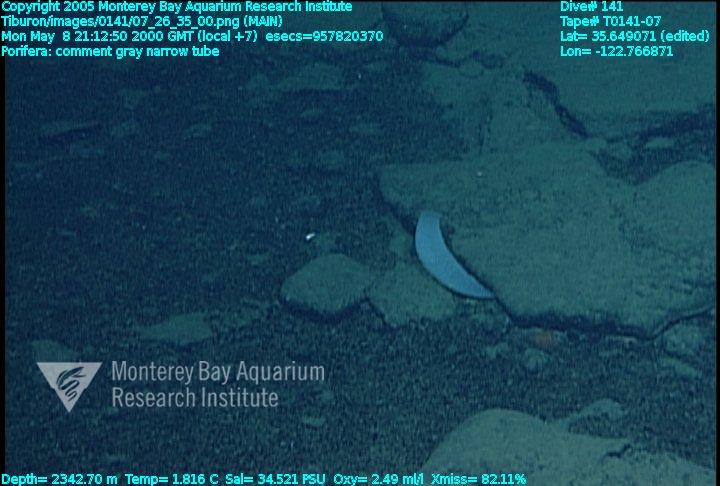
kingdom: Animalia
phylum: Porifera
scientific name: Porifera
